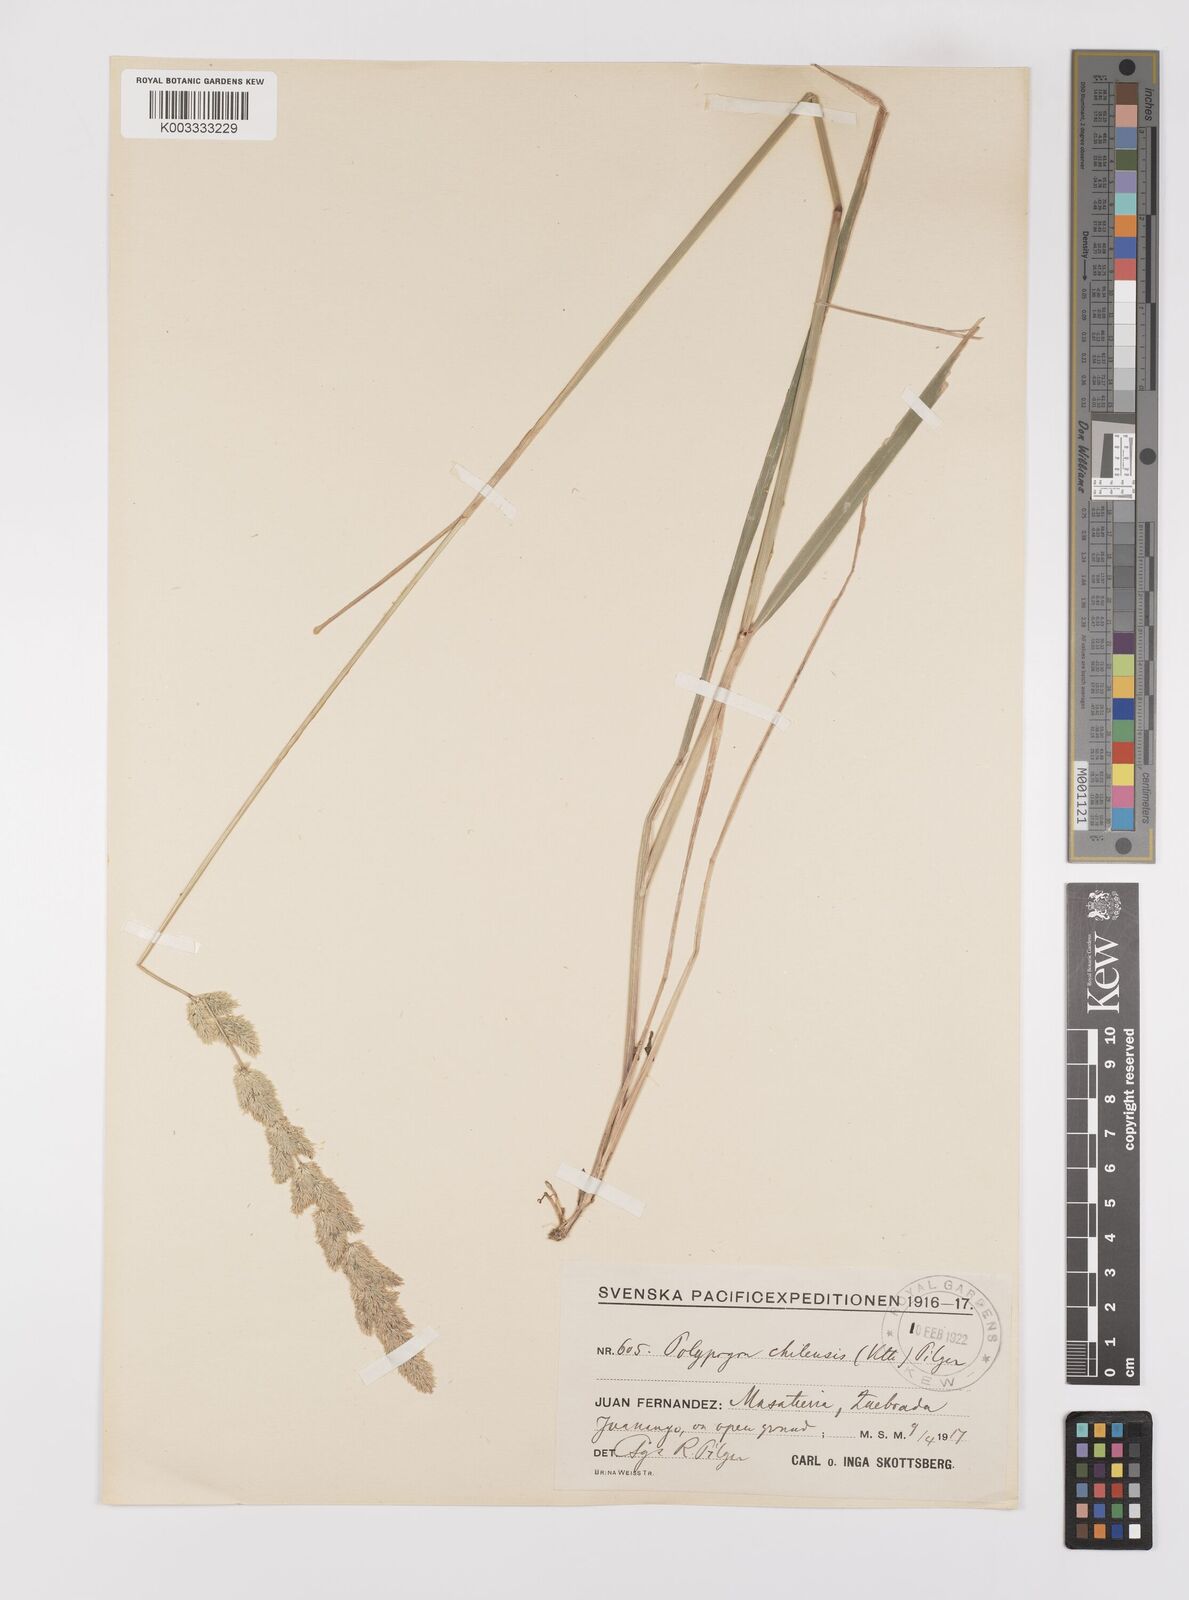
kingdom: Plantae
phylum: Tracheophyta
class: Liliopsida
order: Poales
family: Poaceae
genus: Polypogon
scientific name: Polypogon chilensis
